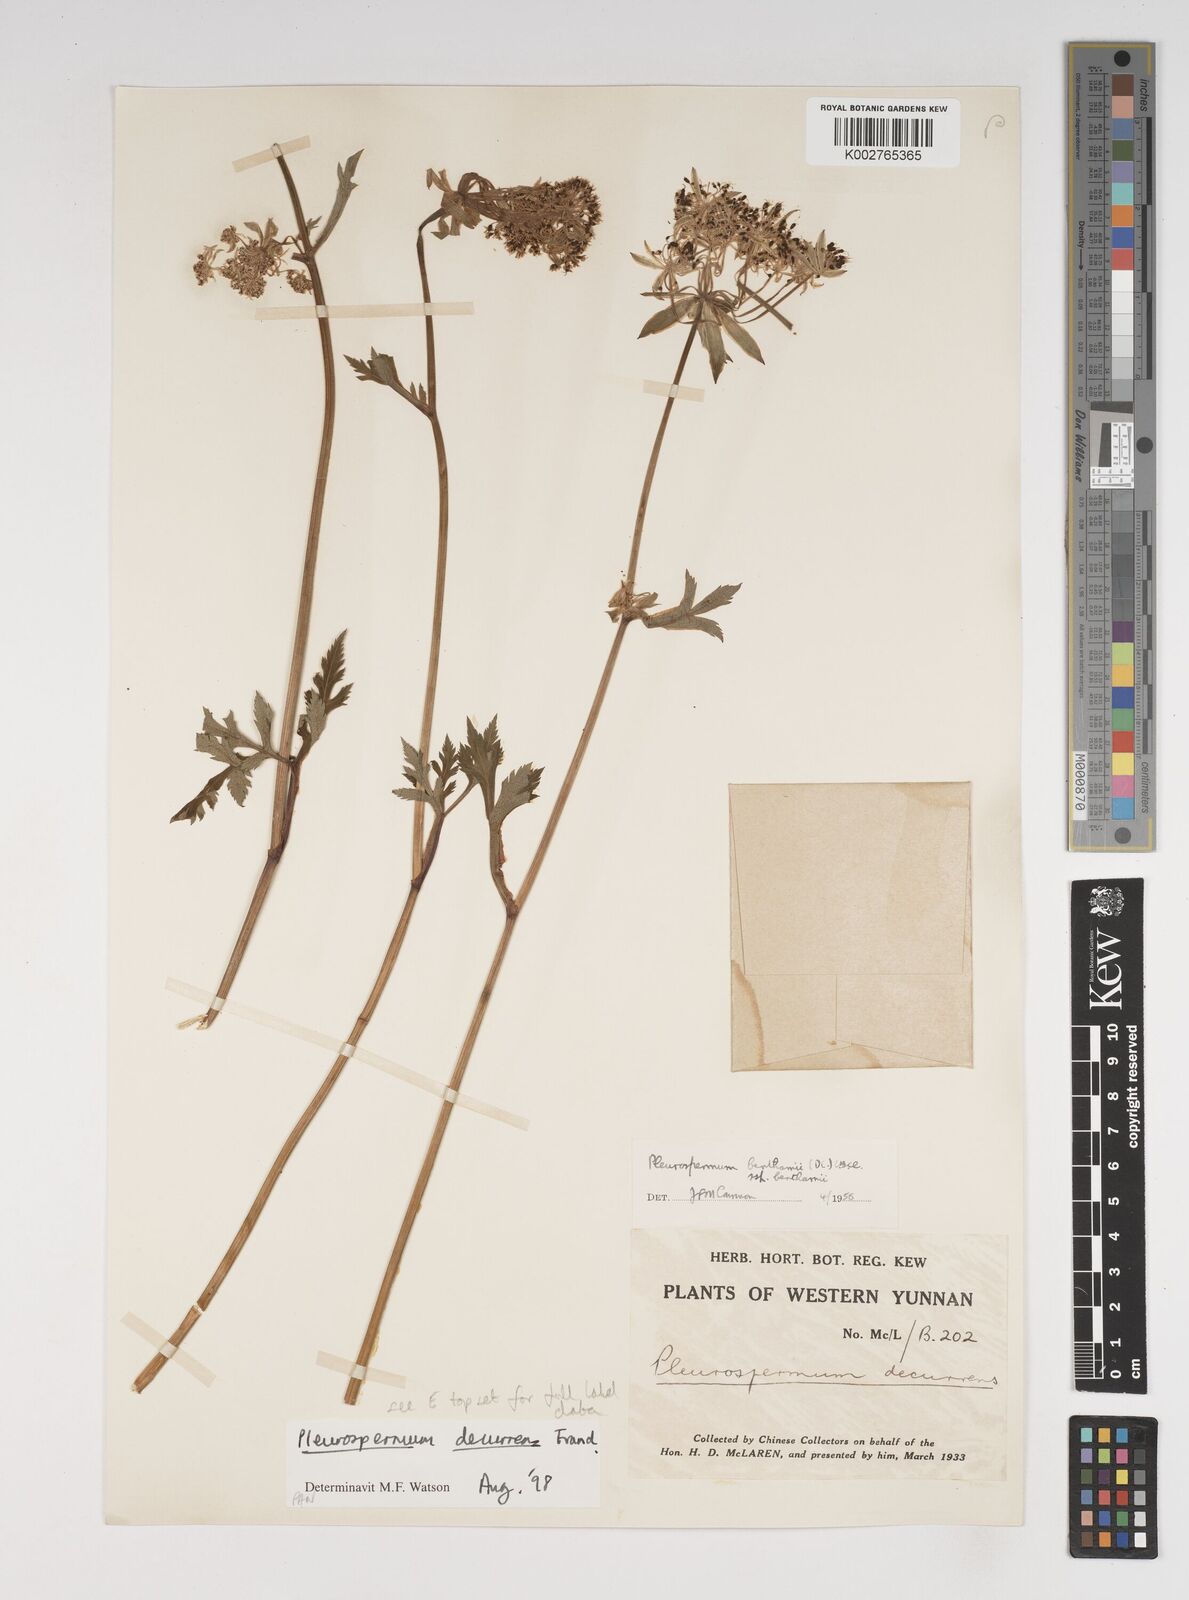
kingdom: Plantae
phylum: Tracheophyta
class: Magnoliopsida
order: Apiales
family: Apiaceae
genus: Hymenidium
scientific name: Hymenidium decurrens
